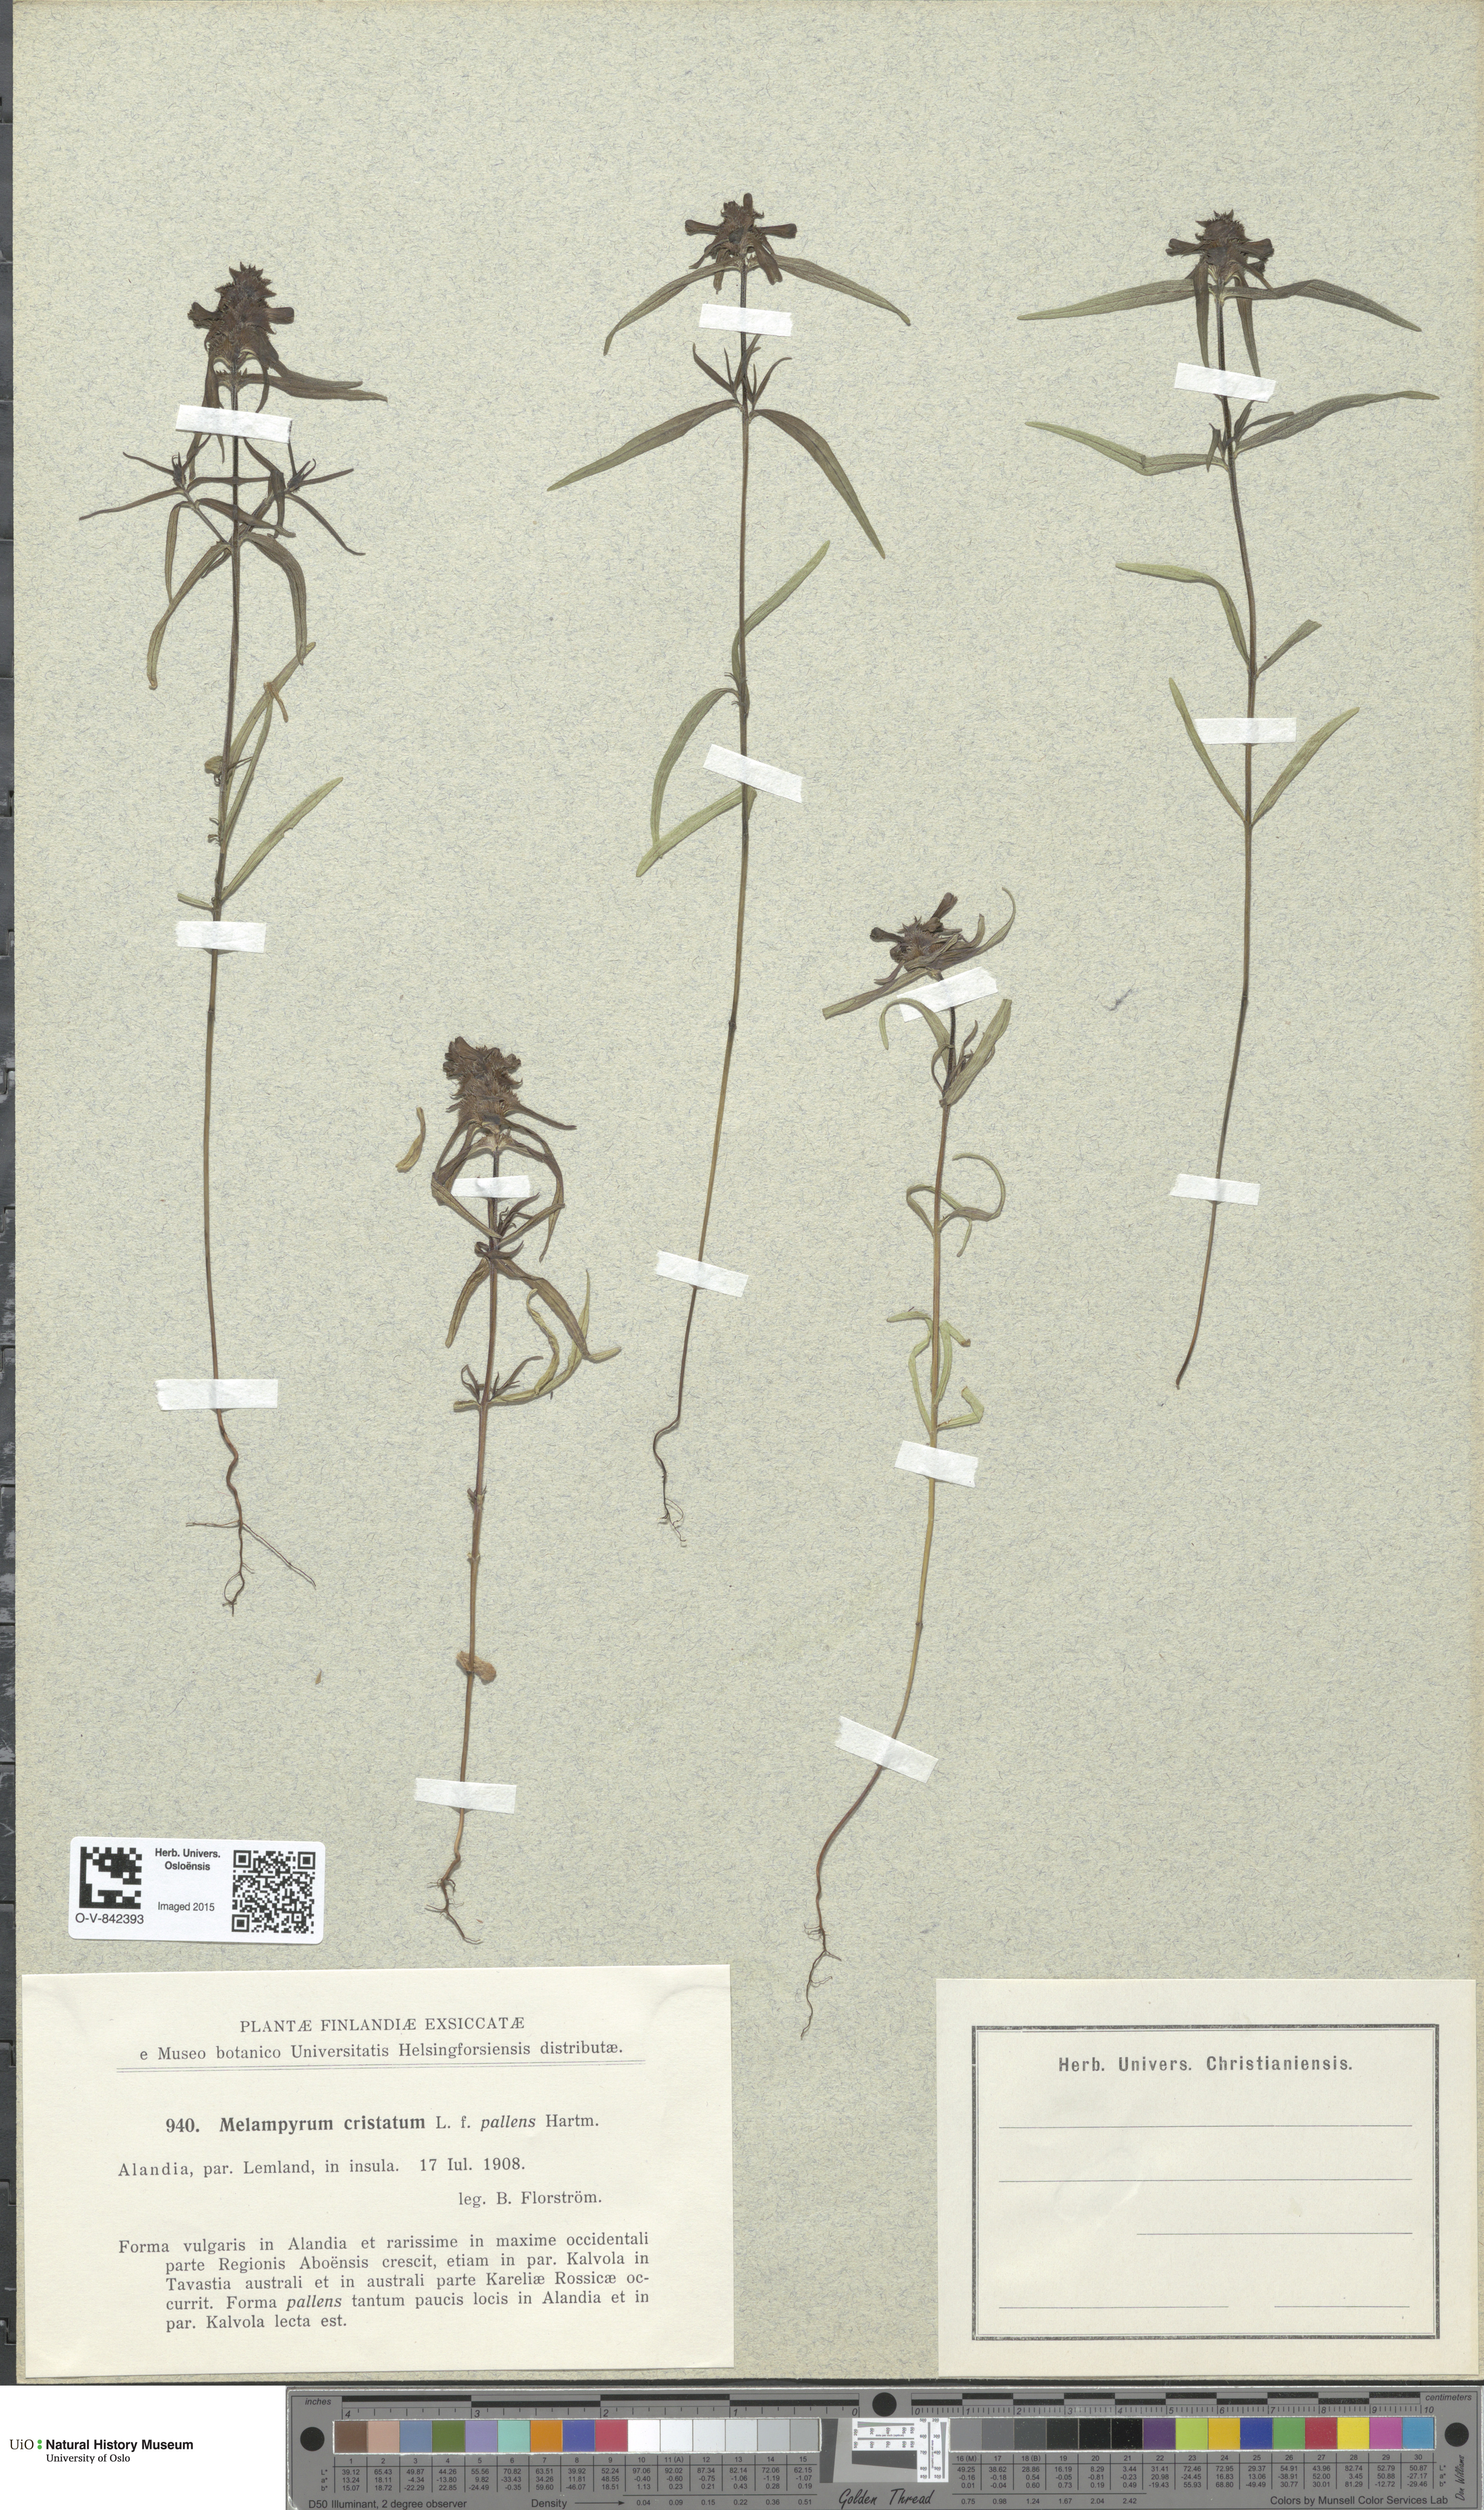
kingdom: Plantae
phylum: Tracheophyta
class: Magnoliopsida
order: Lamiales
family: Orobanchaceae
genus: Melampyrum
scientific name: Melampyrum cristatum
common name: Crested cow-wheat
